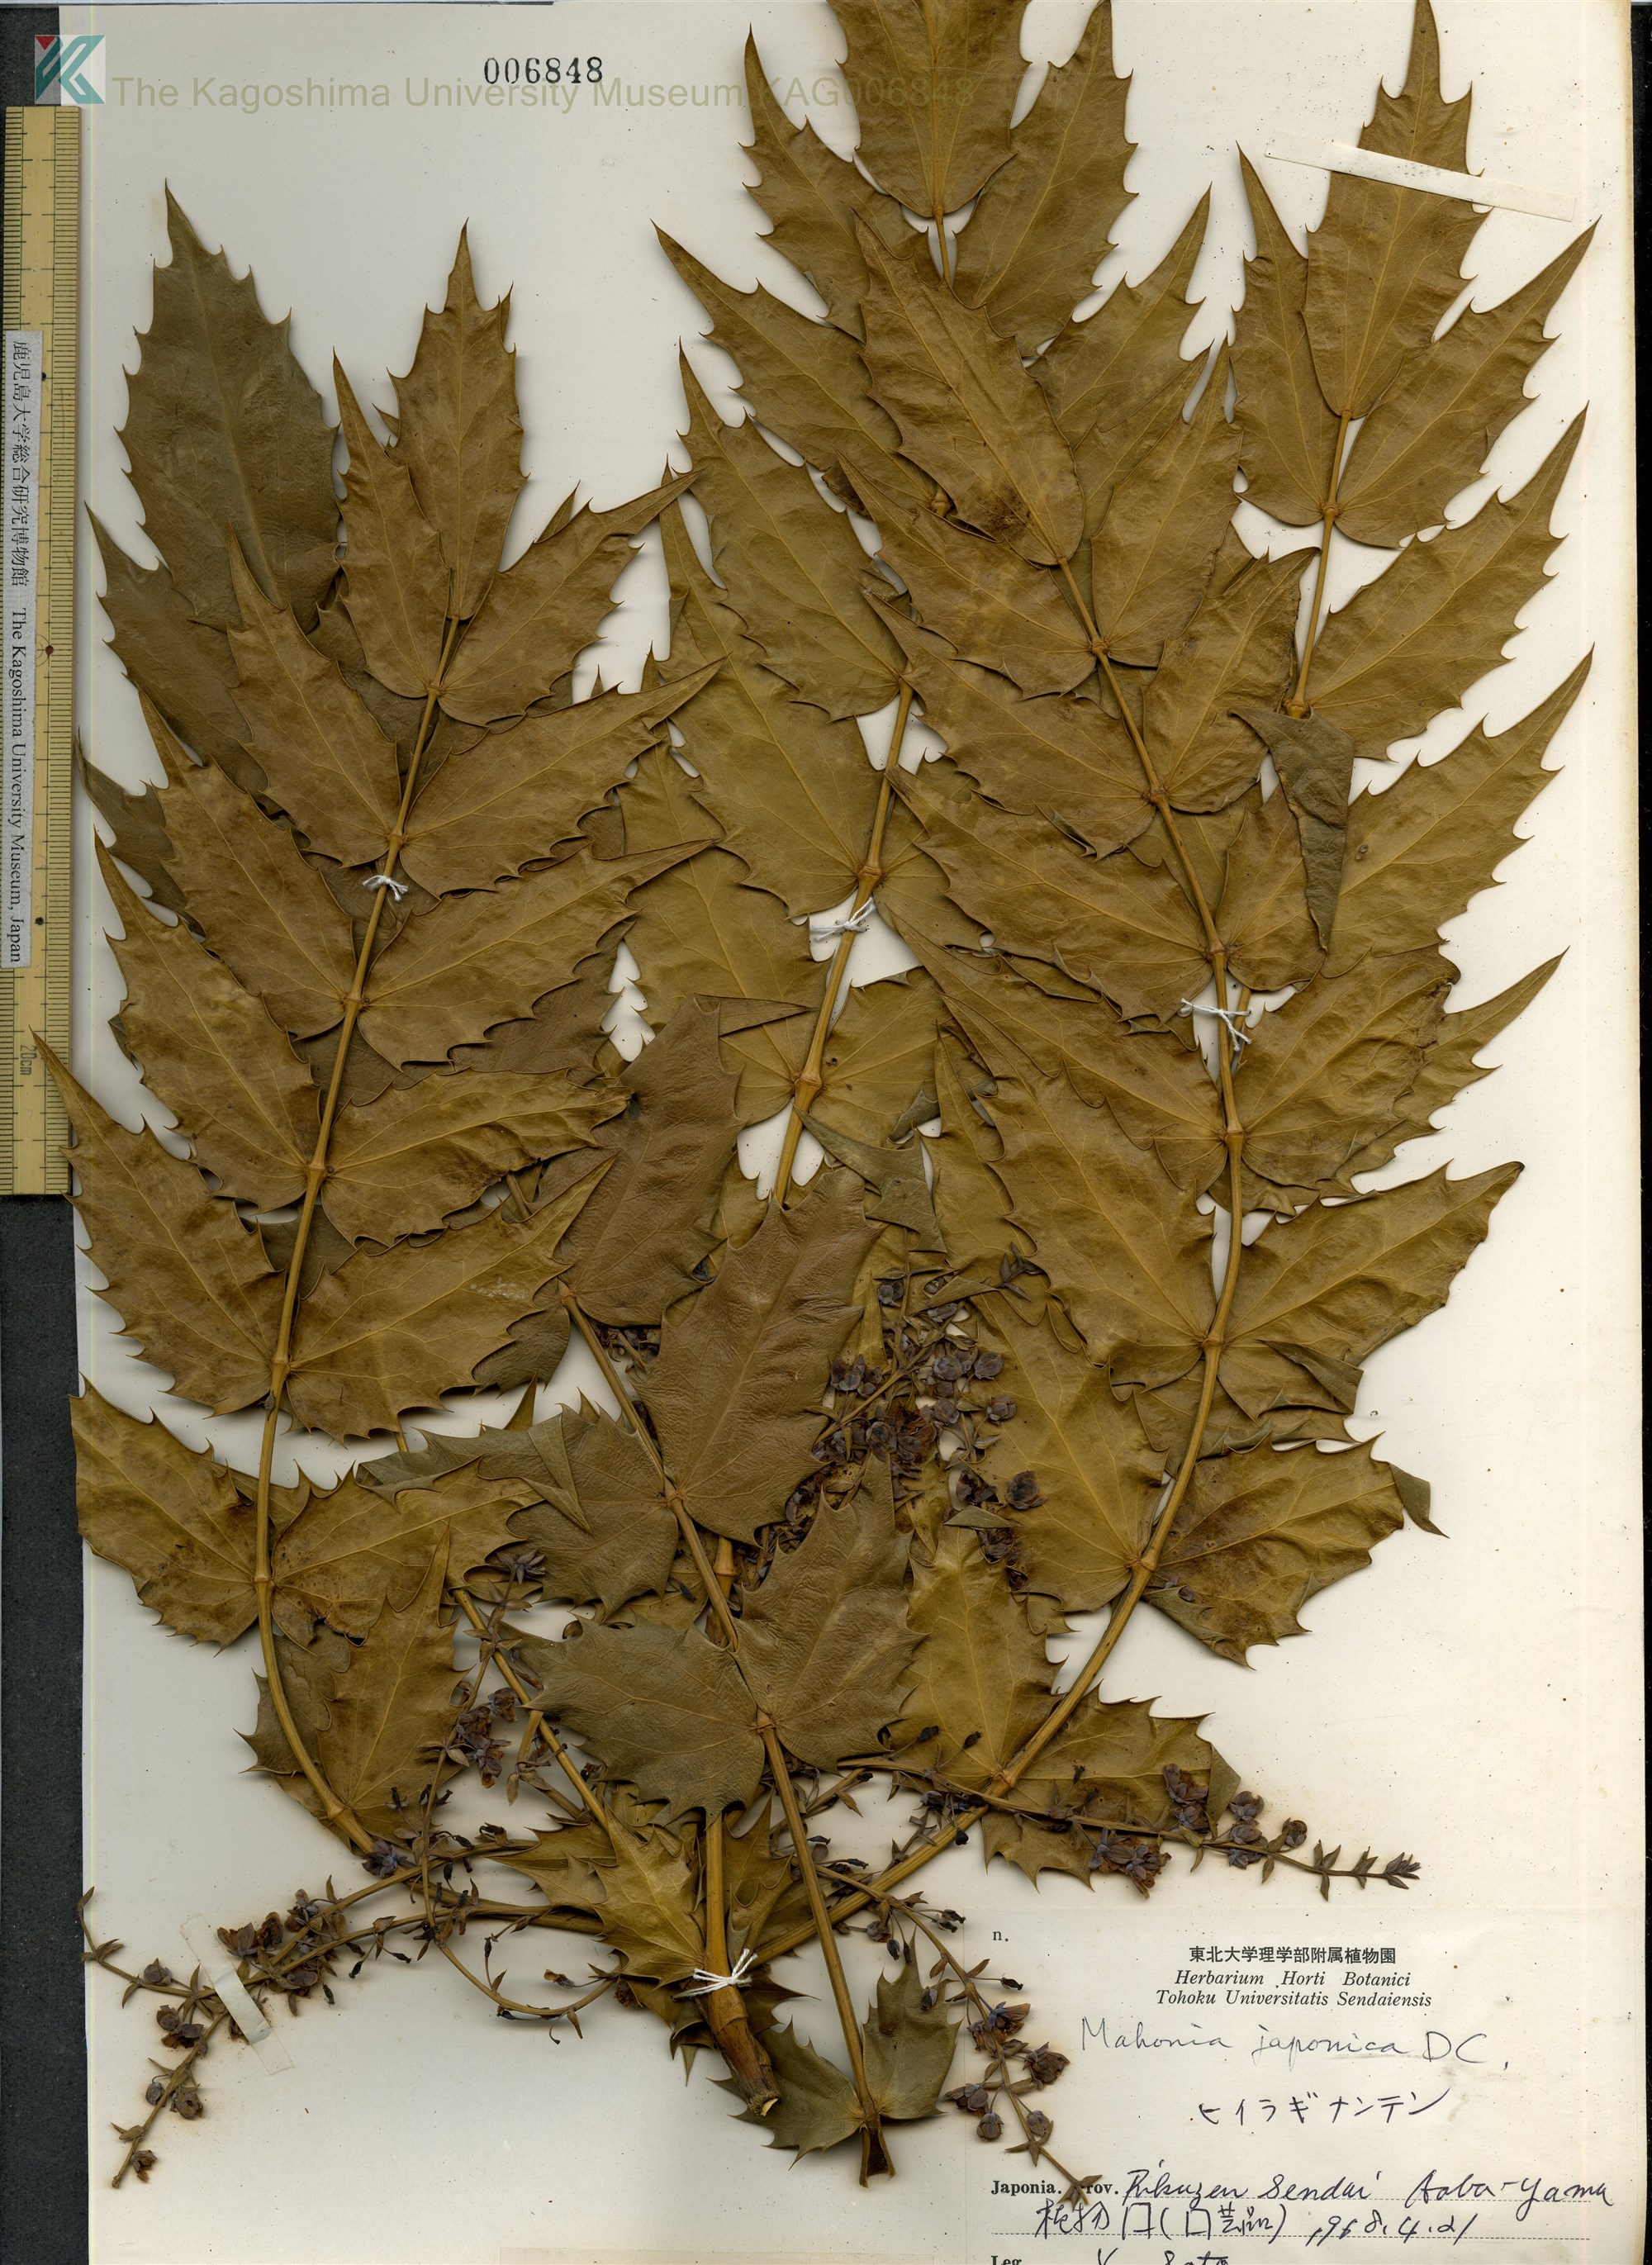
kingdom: Plantae
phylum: Tracheophyta
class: Magnoliopsida
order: Ranunculales
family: Berberidaceae
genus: Mahonia
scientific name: Mahonia japonica
